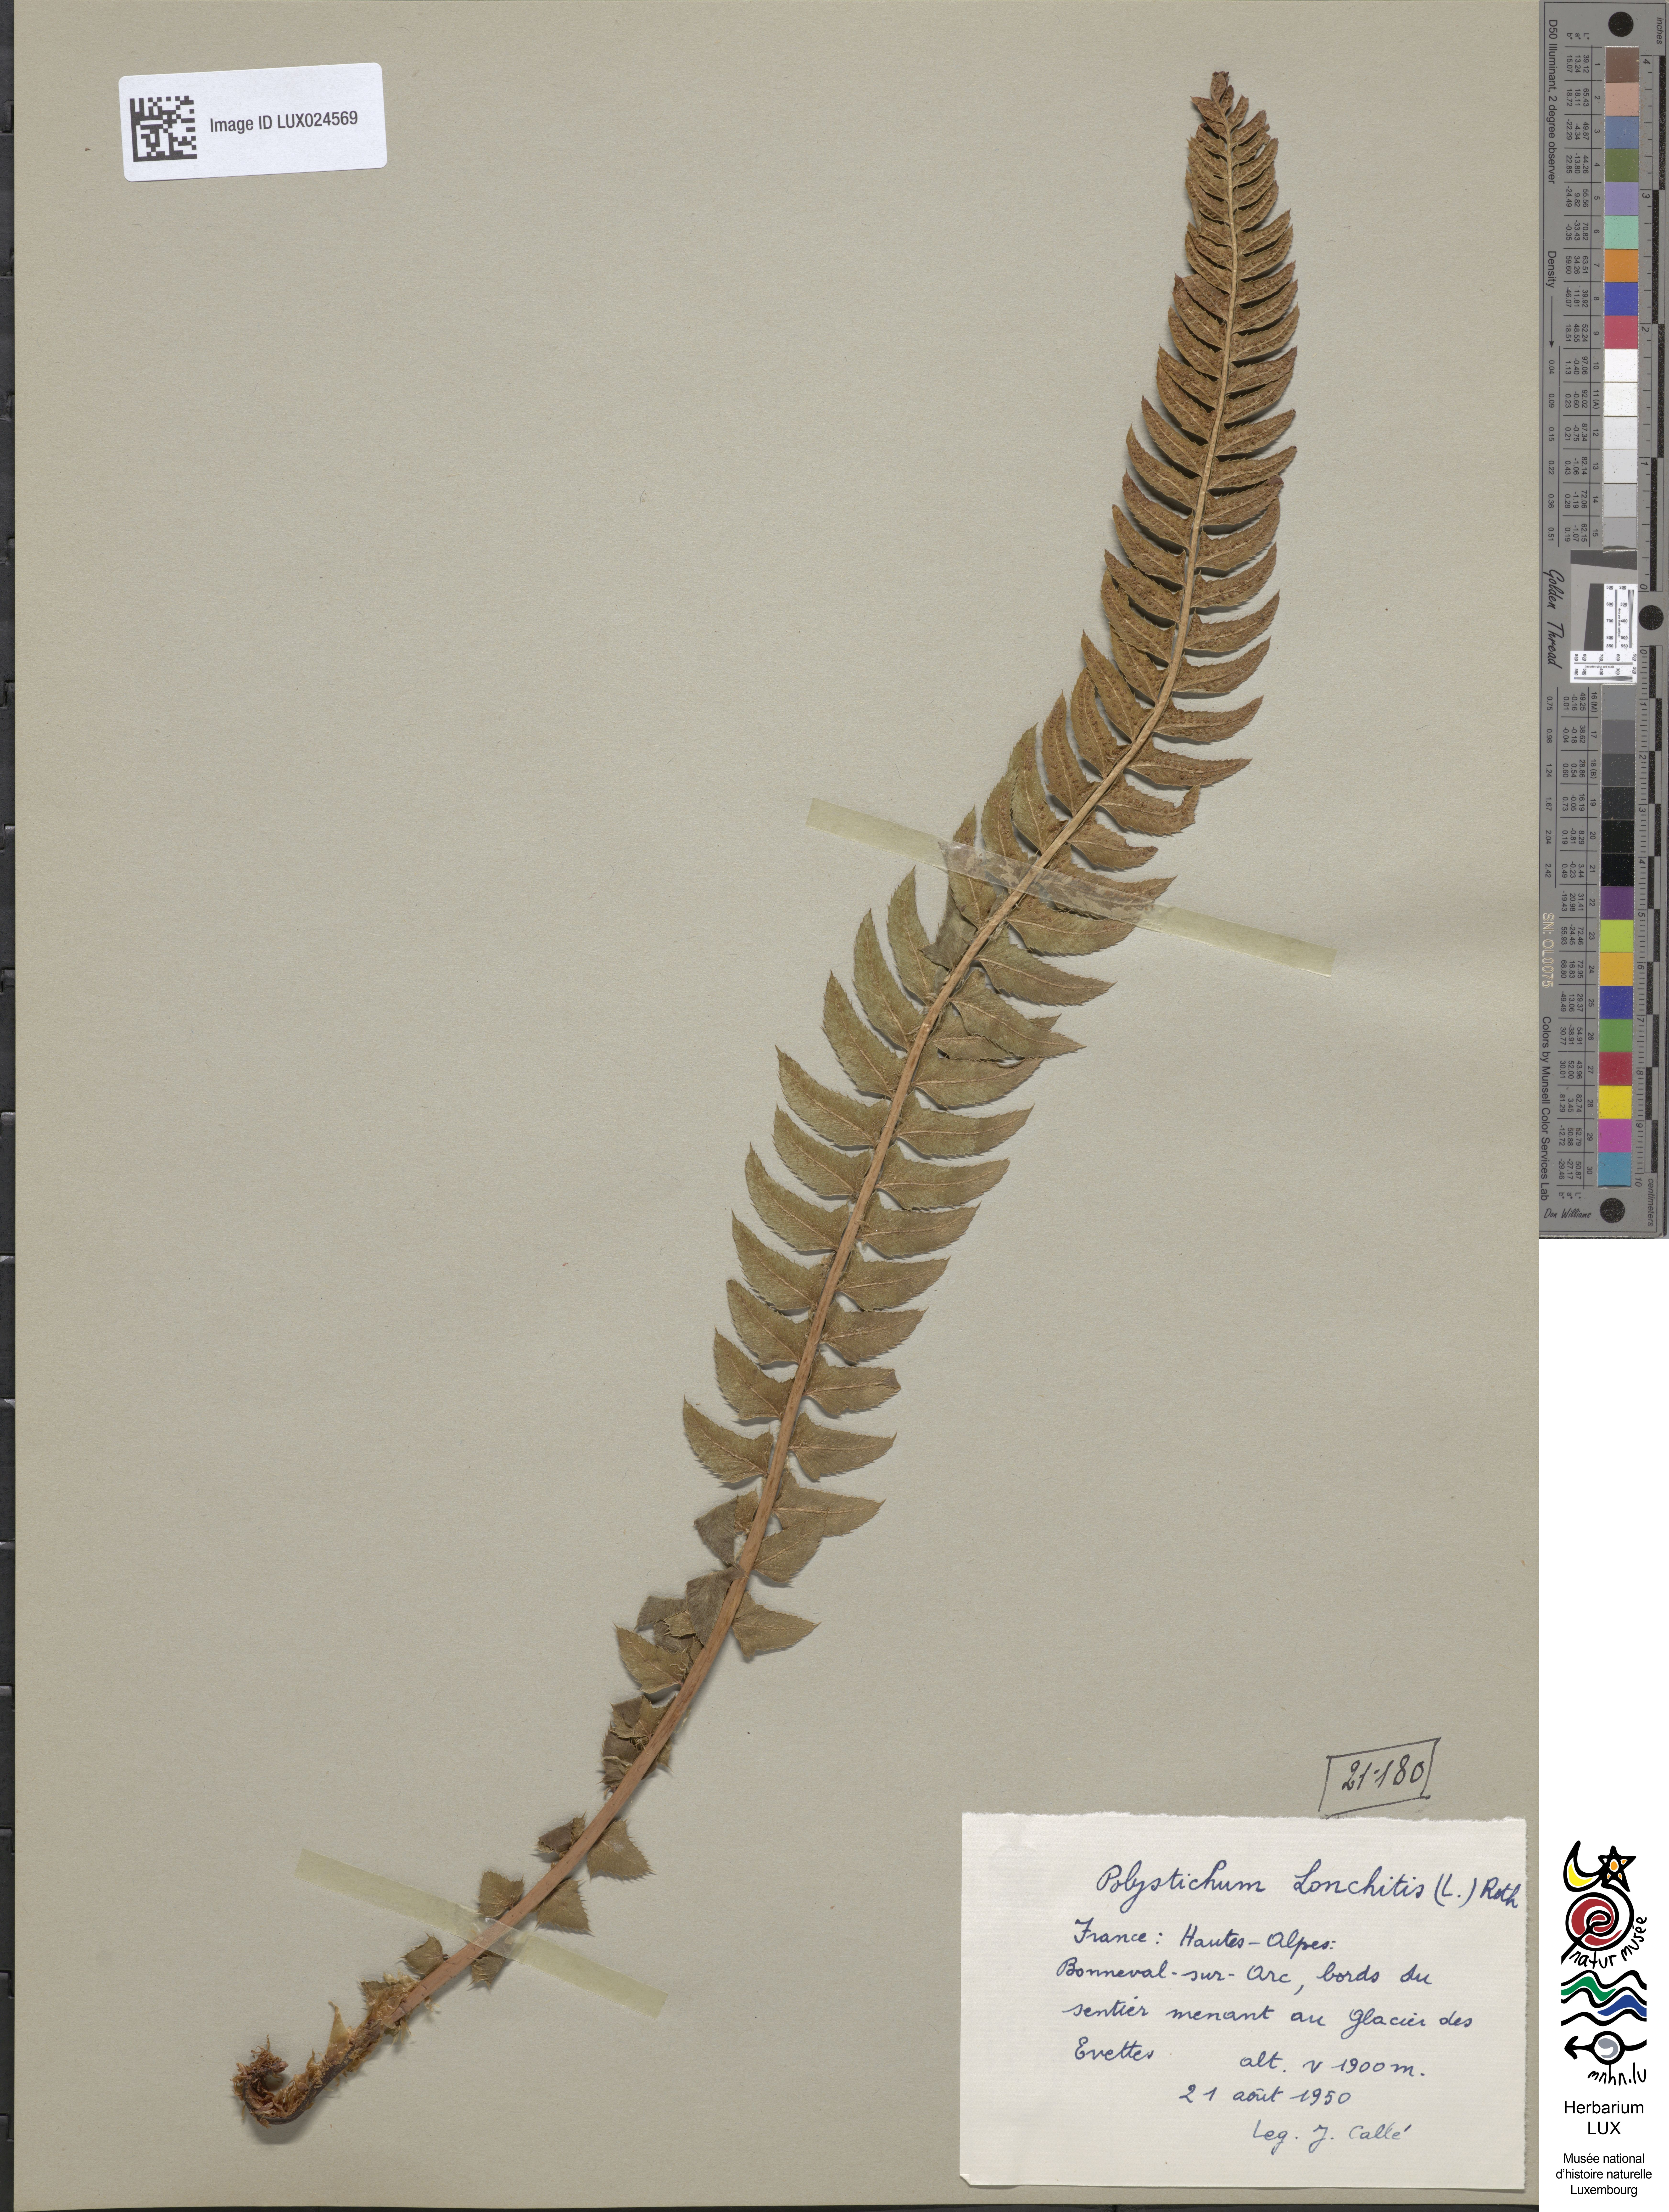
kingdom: Plantae
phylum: Tracheophyta
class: Polypodiopsida
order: Polypodiales
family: Dryopteridaceae
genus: Polystichum
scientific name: Polystichum lonchitis
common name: Holly fern
